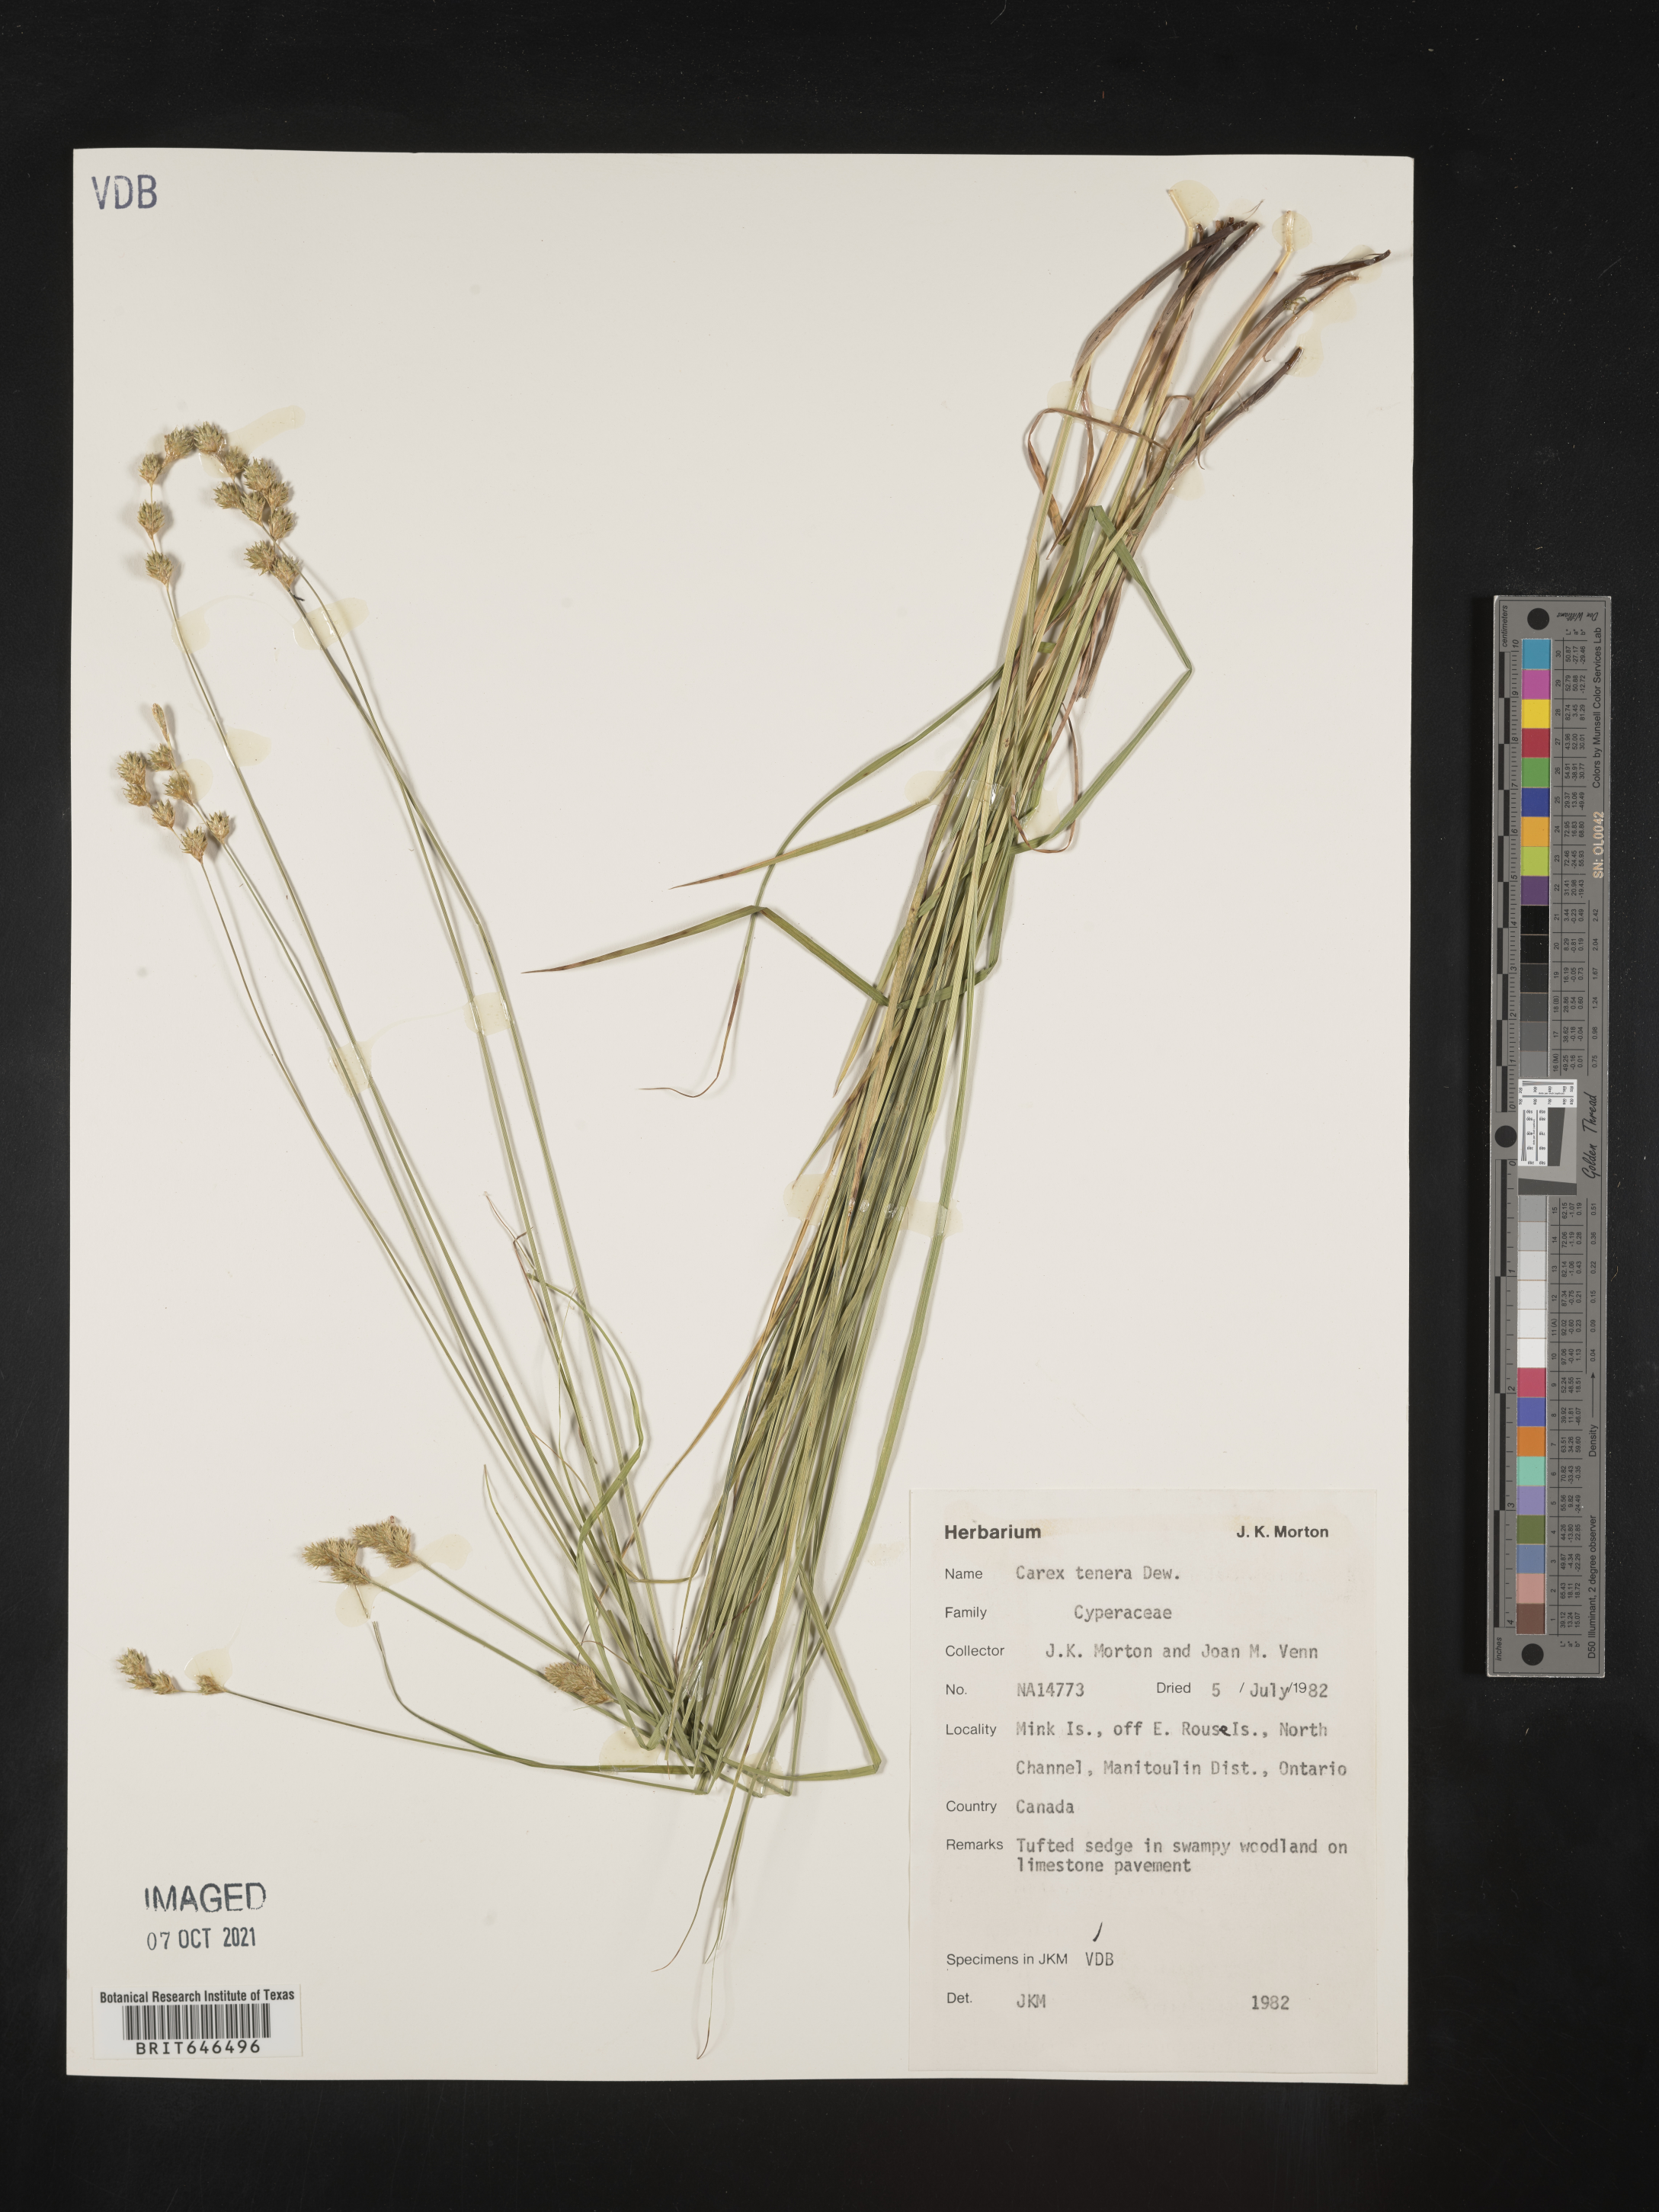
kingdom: Plantae
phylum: Tracheophyta
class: Liliopsida
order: Poales
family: Cyperaceae
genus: Carex
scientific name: Carex tenera
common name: Broad-fruited sedge
